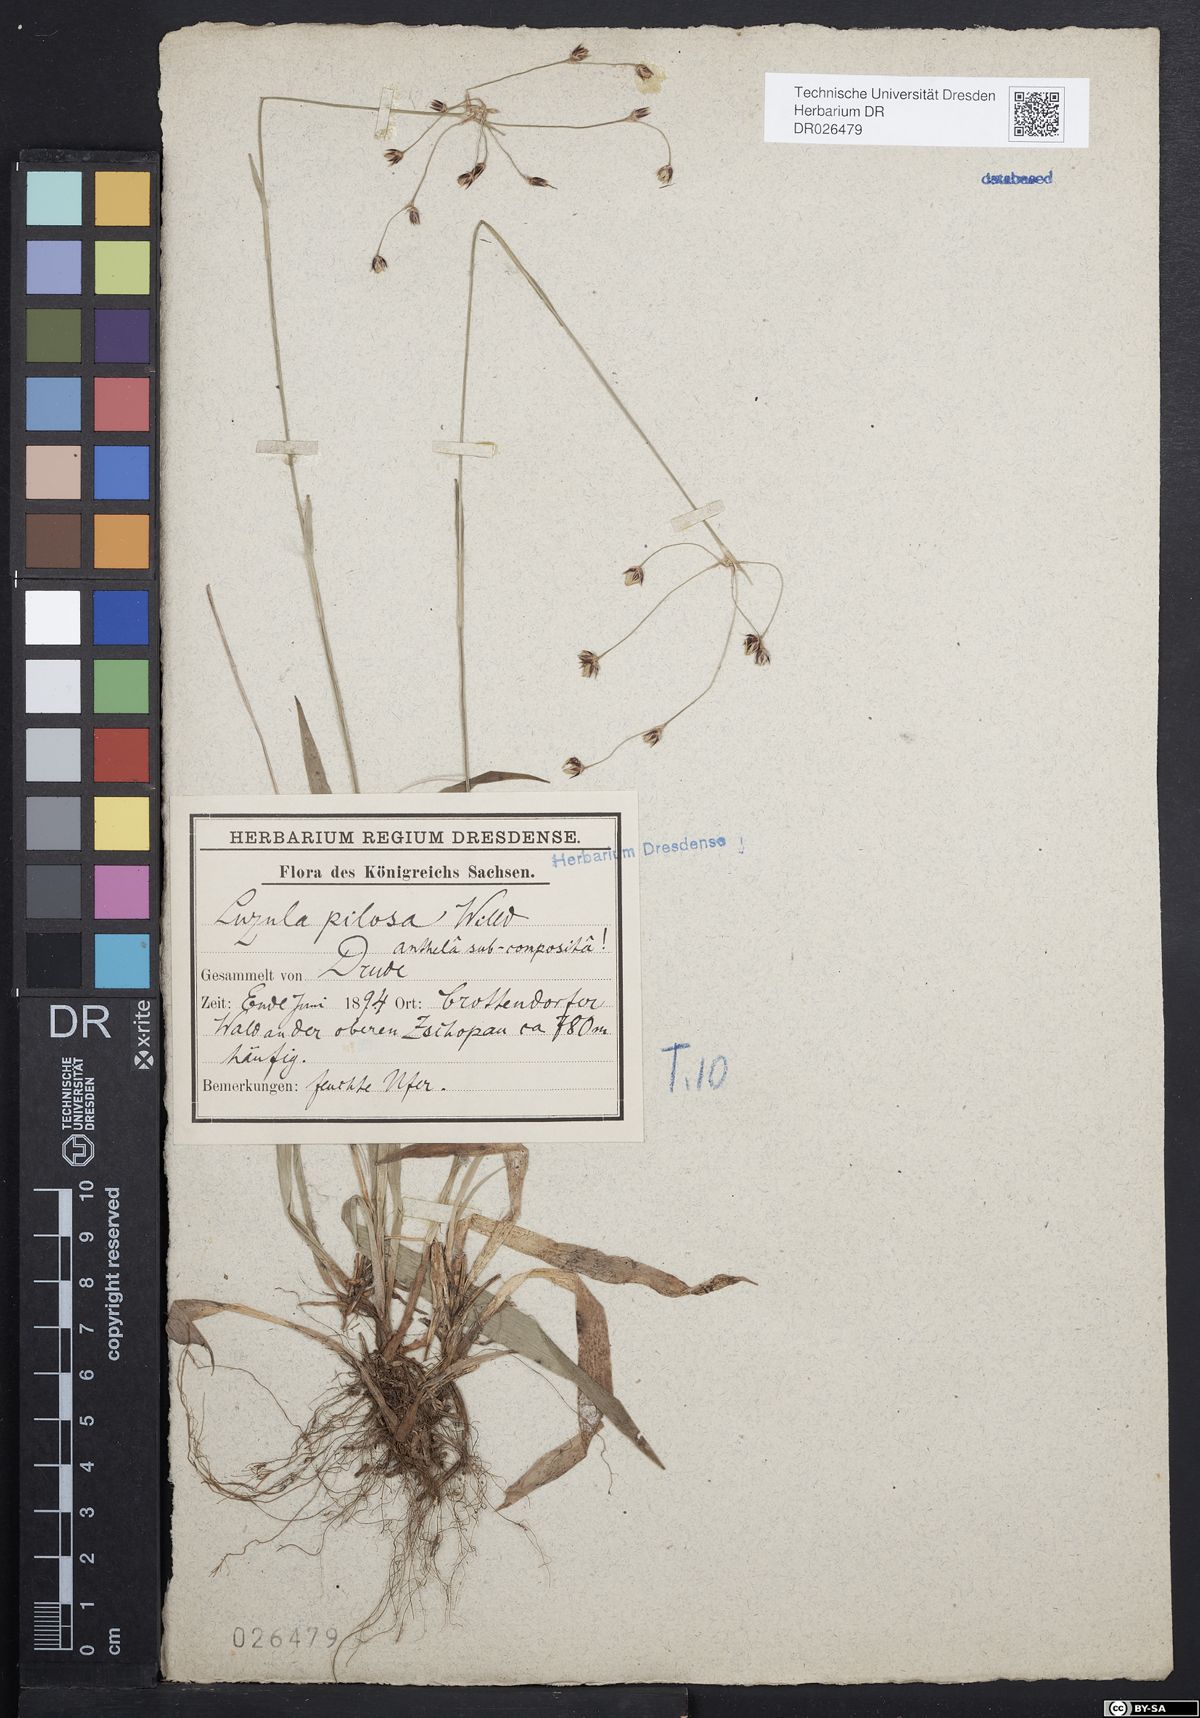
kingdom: Plantae
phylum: Tracheophyta
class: Liliopsida
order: Poales
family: Juncaceae
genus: Luzula
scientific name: Luzula pilosa
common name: Hairy wood-rush
